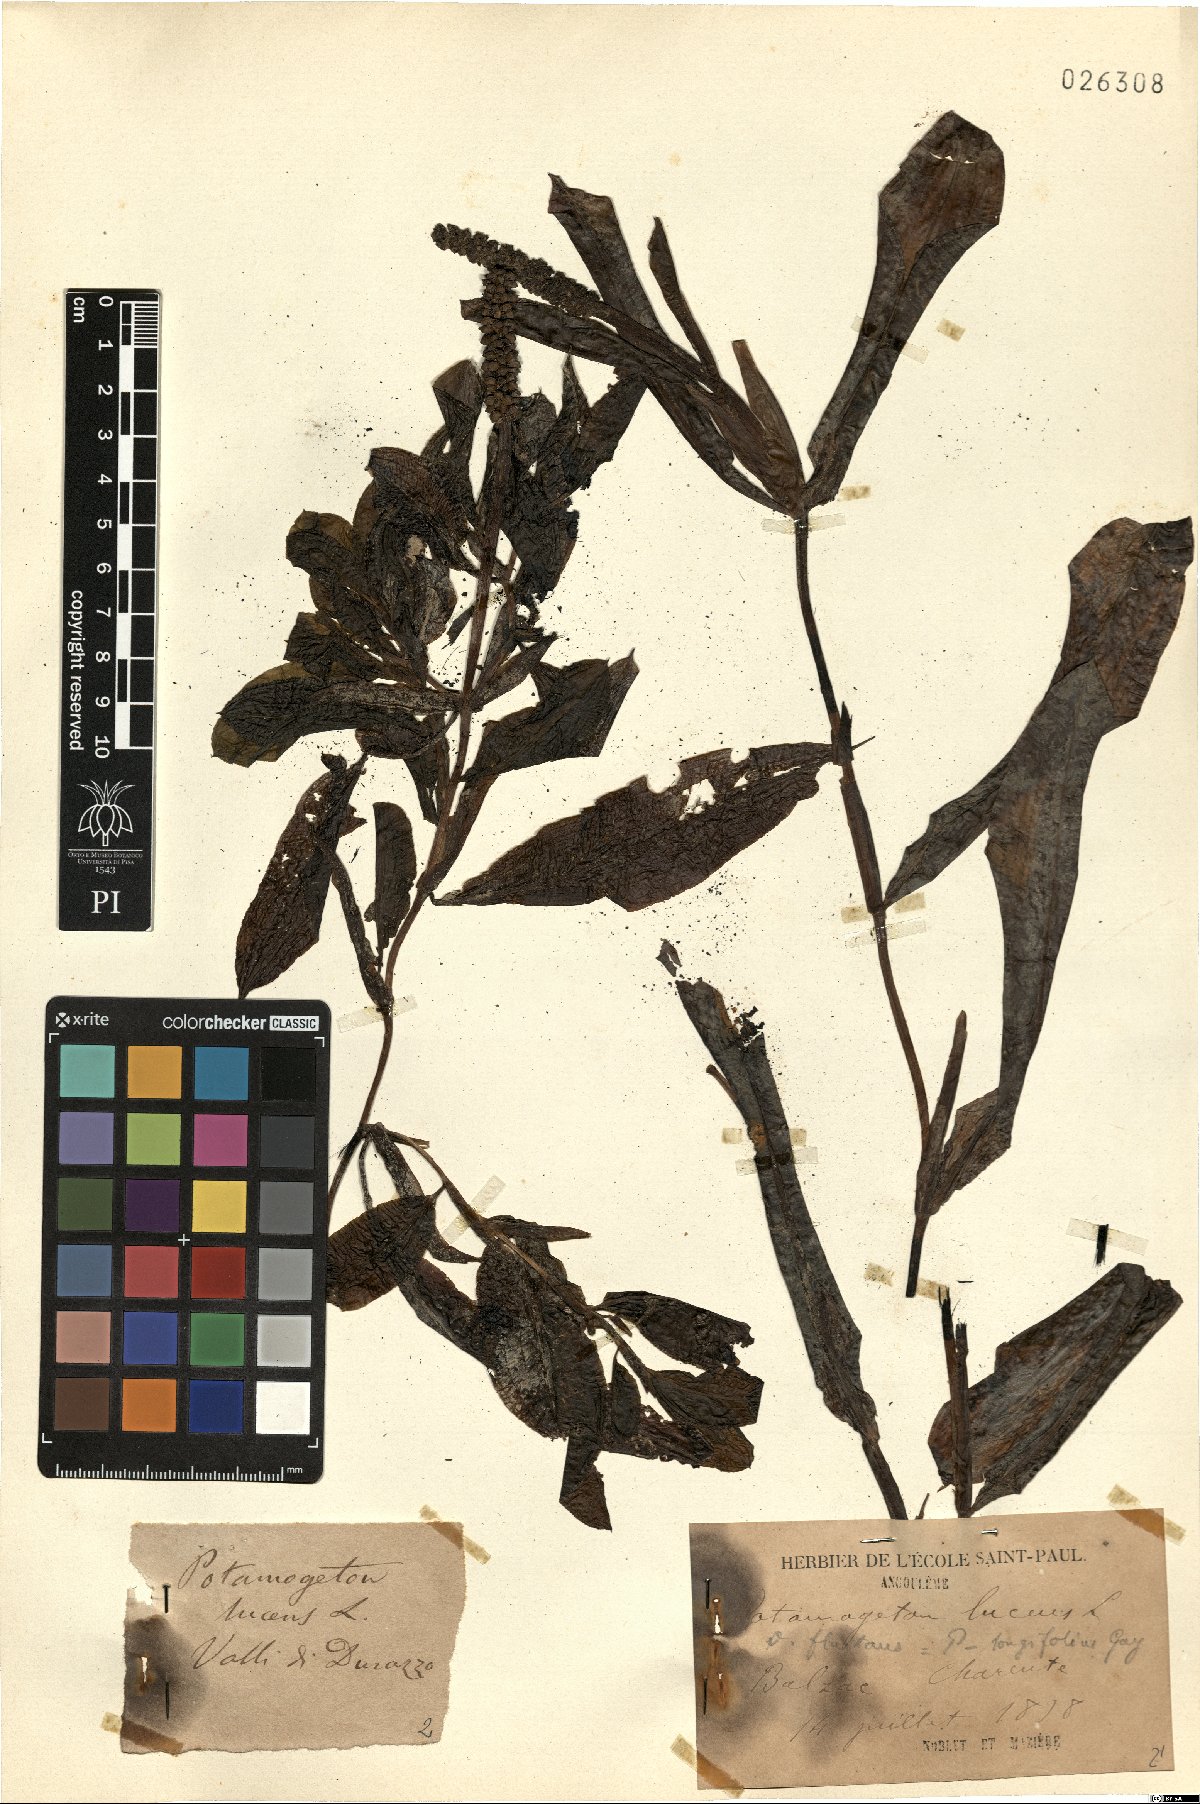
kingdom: Plantae
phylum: Tracheophyta
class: Liliopsida
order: Alismatales
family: Potamogetonaceae
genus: Potamogeton
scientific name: Potamogeton lucens
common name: Shining pondweed
